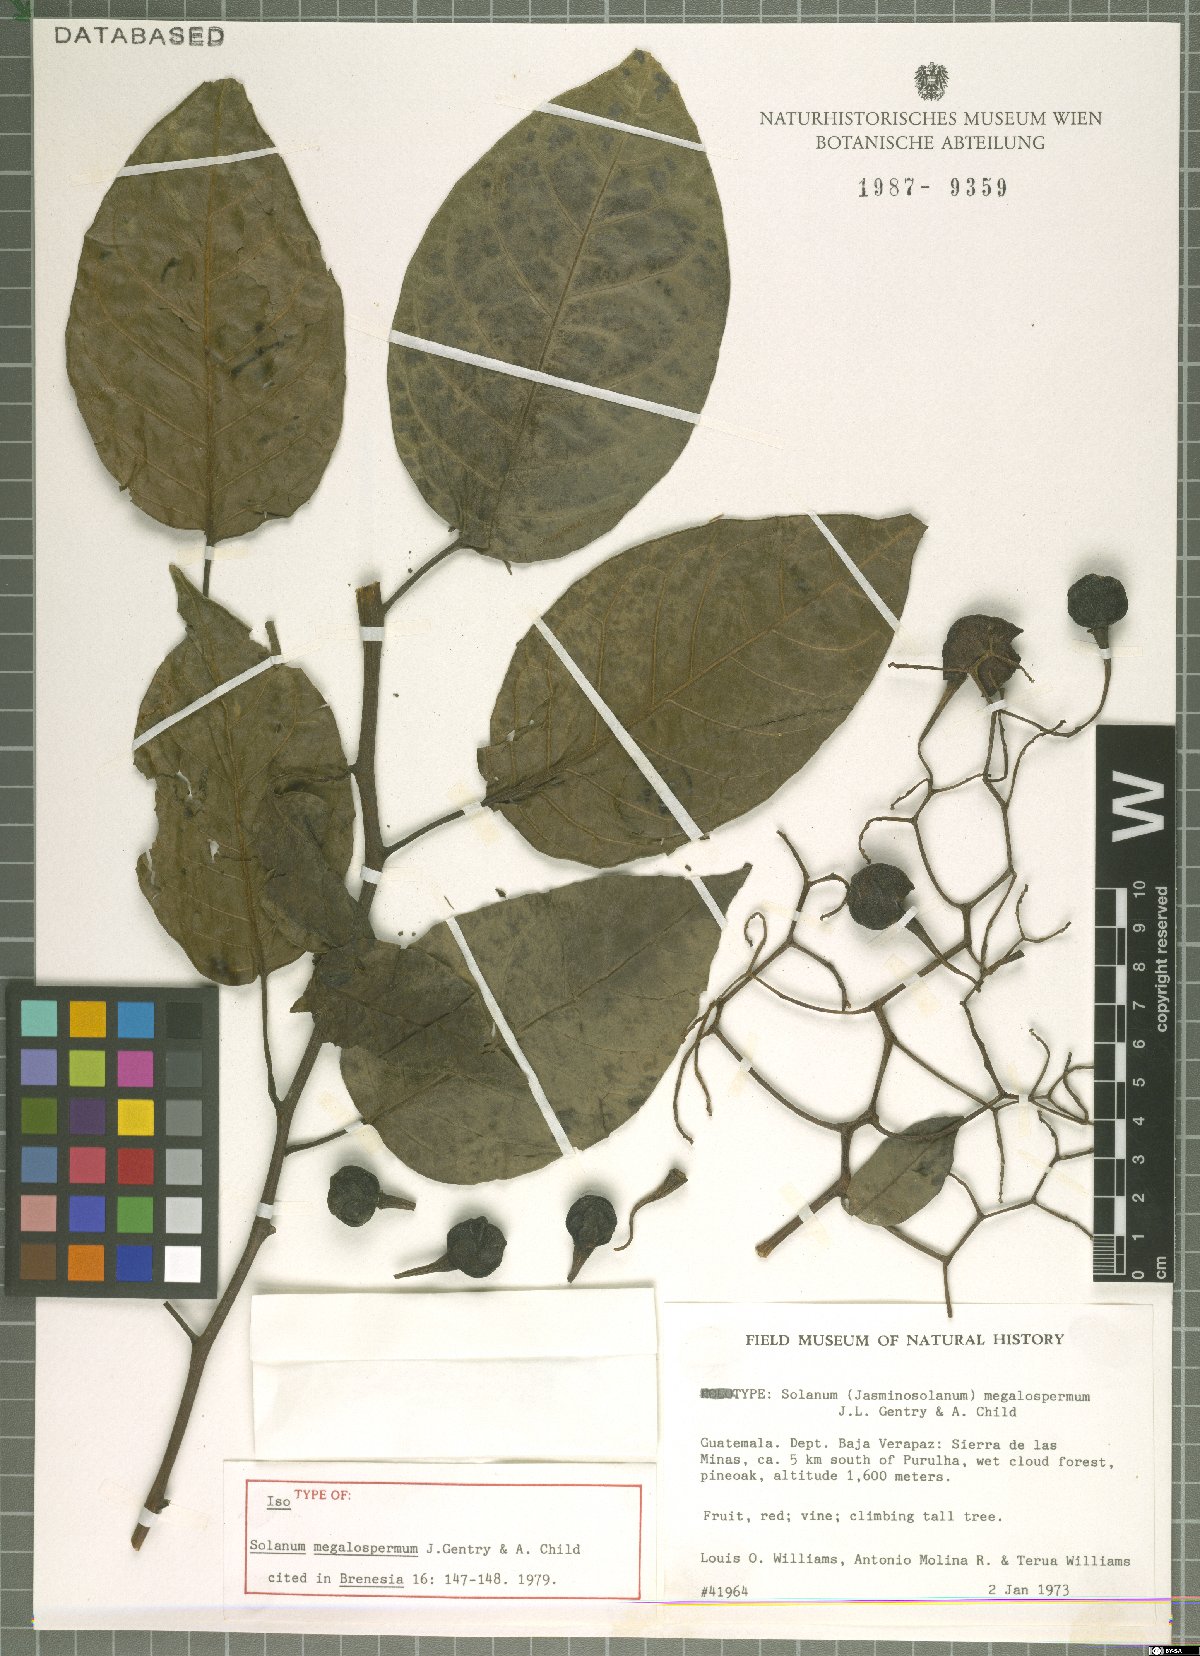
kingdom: Plantae
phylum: Tracheophyta
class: Magnoliopsida
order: Solanales
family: Solanaceae
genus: Solanum
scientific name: Solanum dulcamaroides
